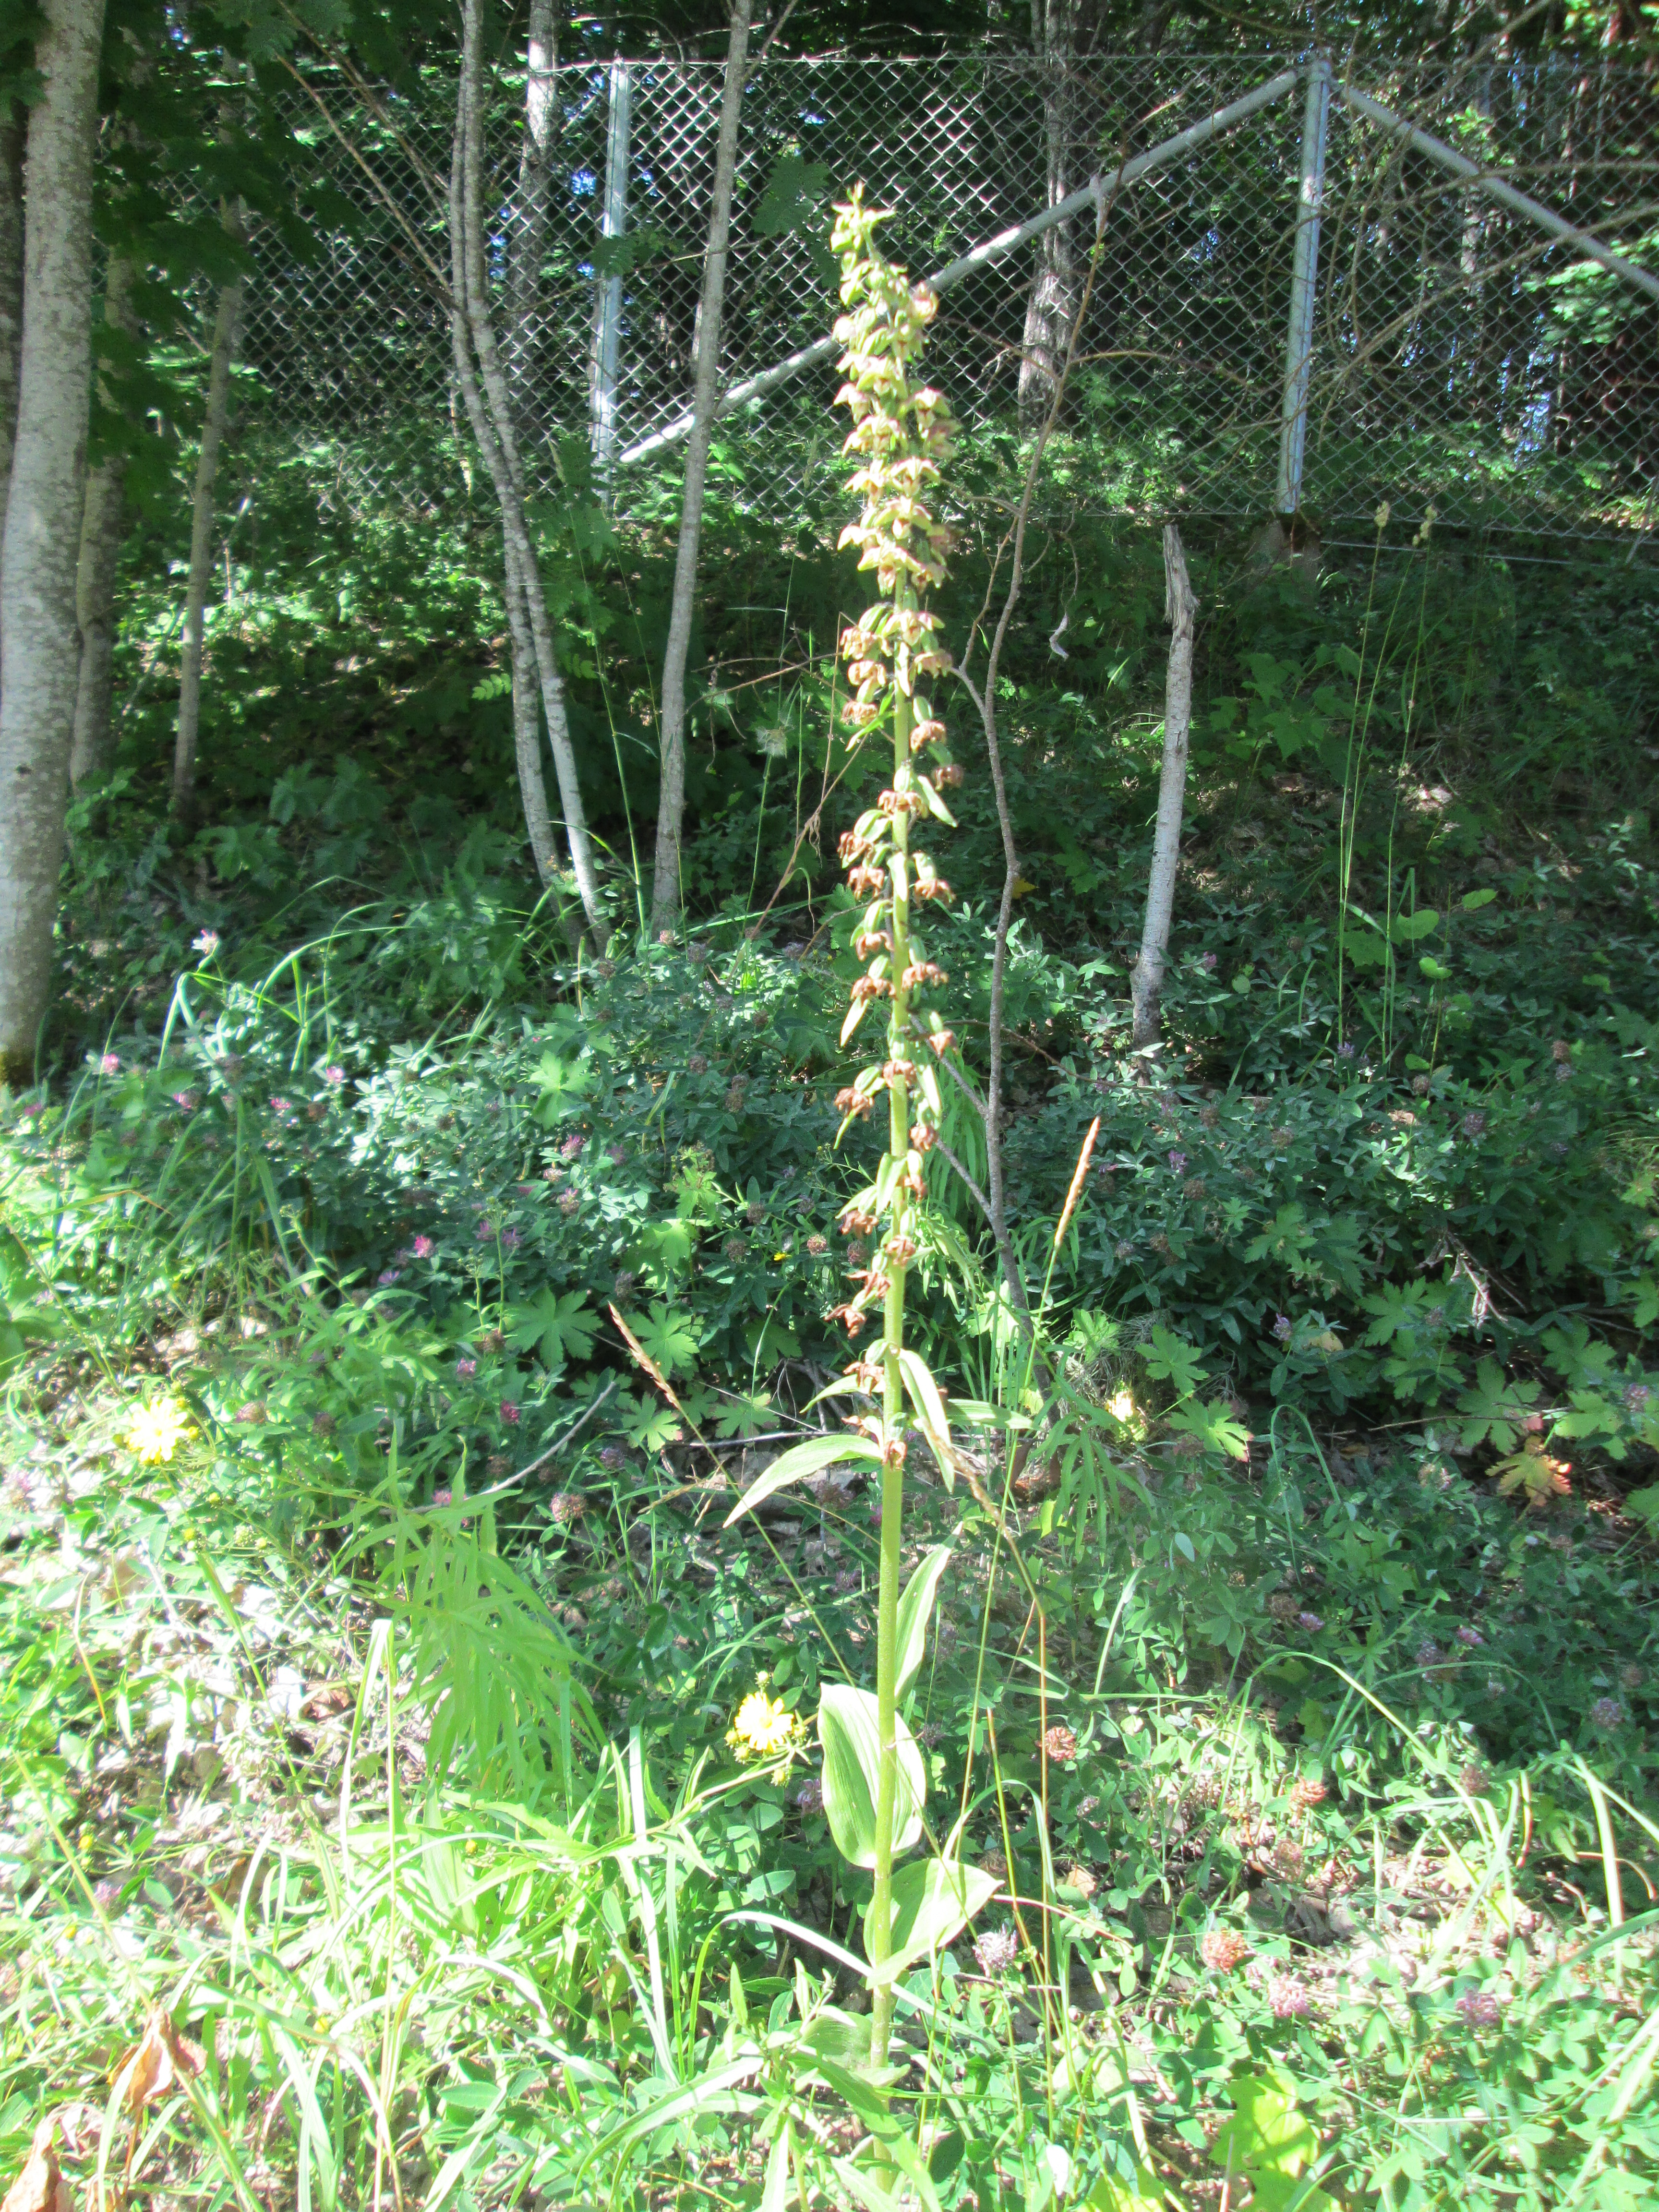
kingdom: Plantae
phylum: Tracheophyta
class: Liliopsida
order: Asparagales
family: Orchidaceae
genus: Epipactis
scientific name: Epipactis helleborine
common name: Broad-leaved helleborine
